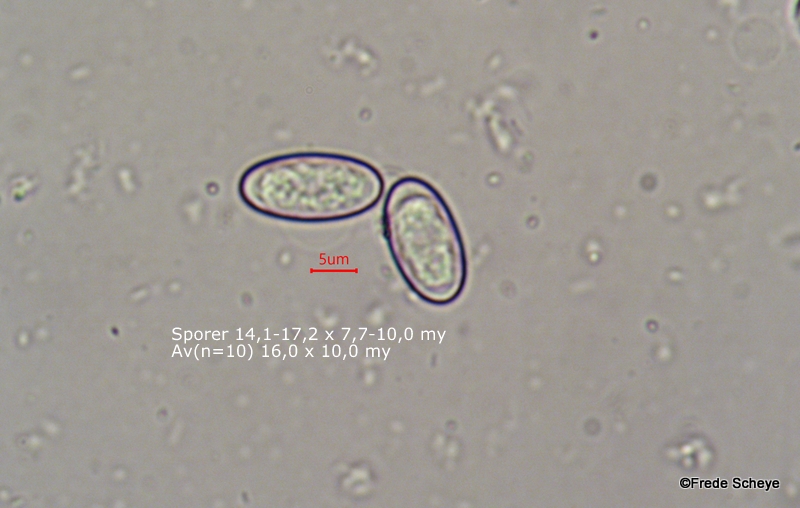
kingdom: Fungi
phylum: Ascomycota
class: Pezizomycetes
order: Pezizales
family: Pezizaceae
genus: Peziza
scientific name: Peziza
